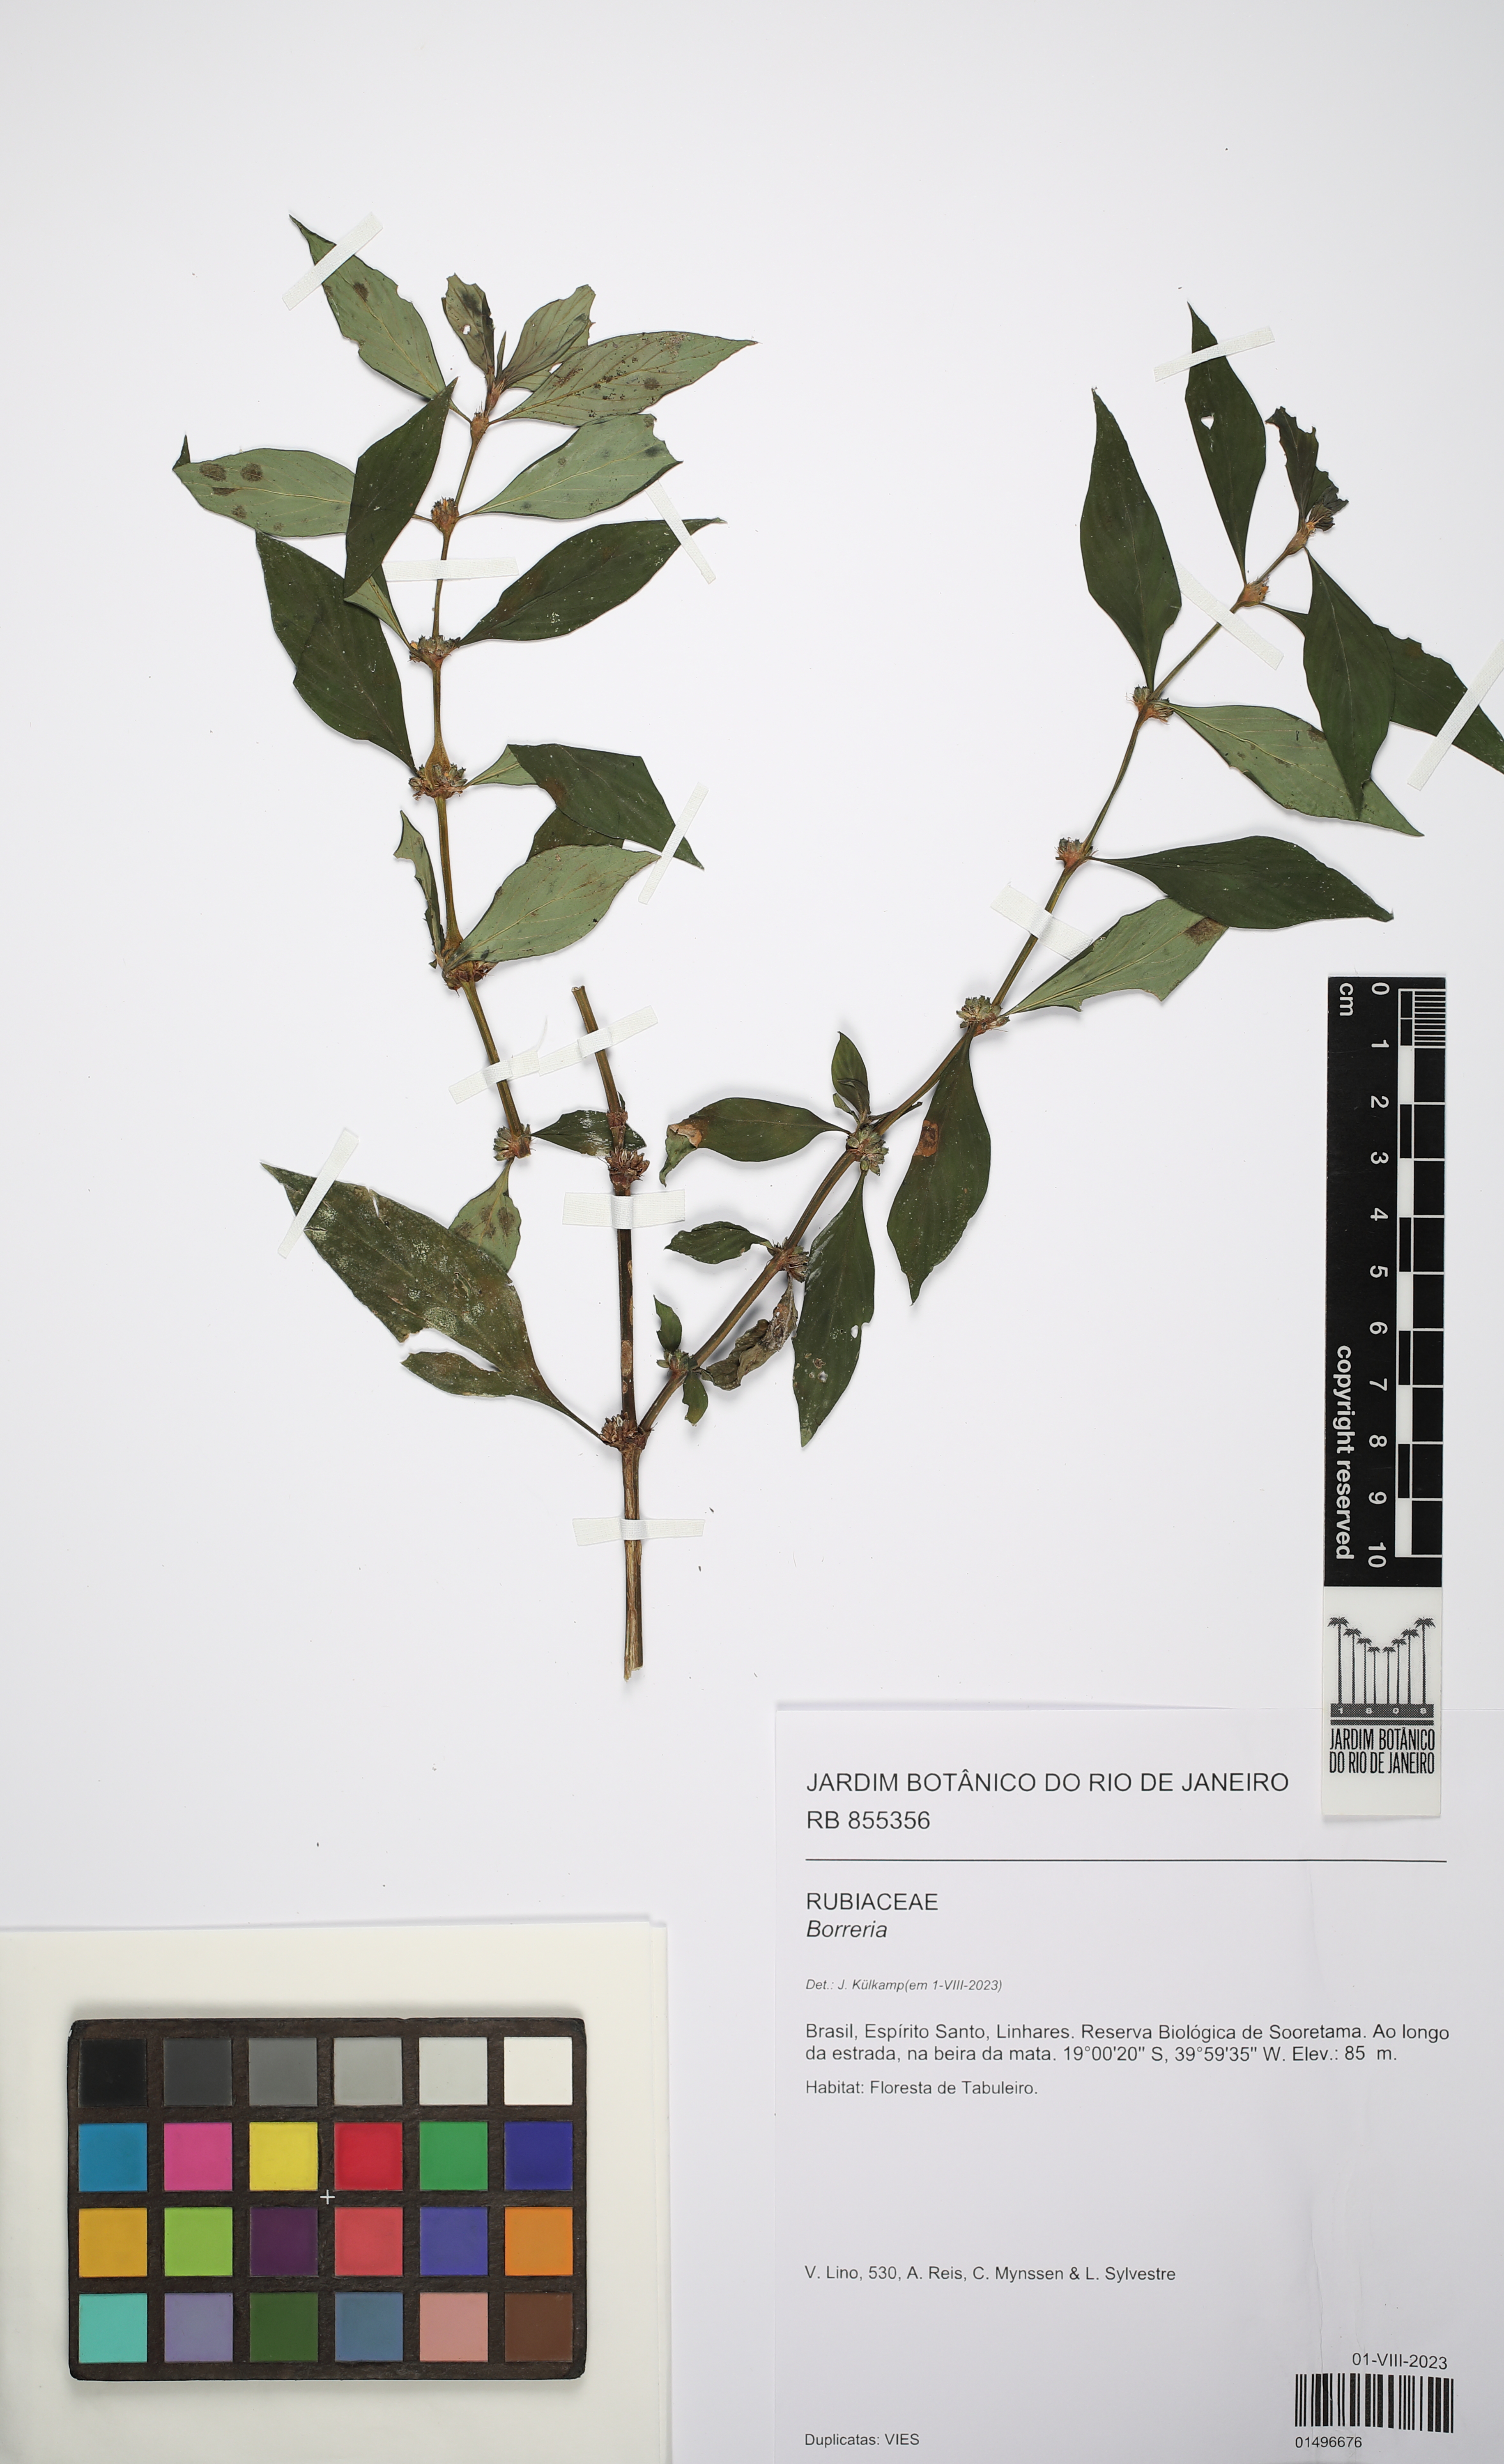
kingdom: Plantae
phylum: Tracheophyta
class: Magnoliopsida
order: Gentianales
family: Rubiaceae
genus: Spermacoce
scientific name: Spermacoce
